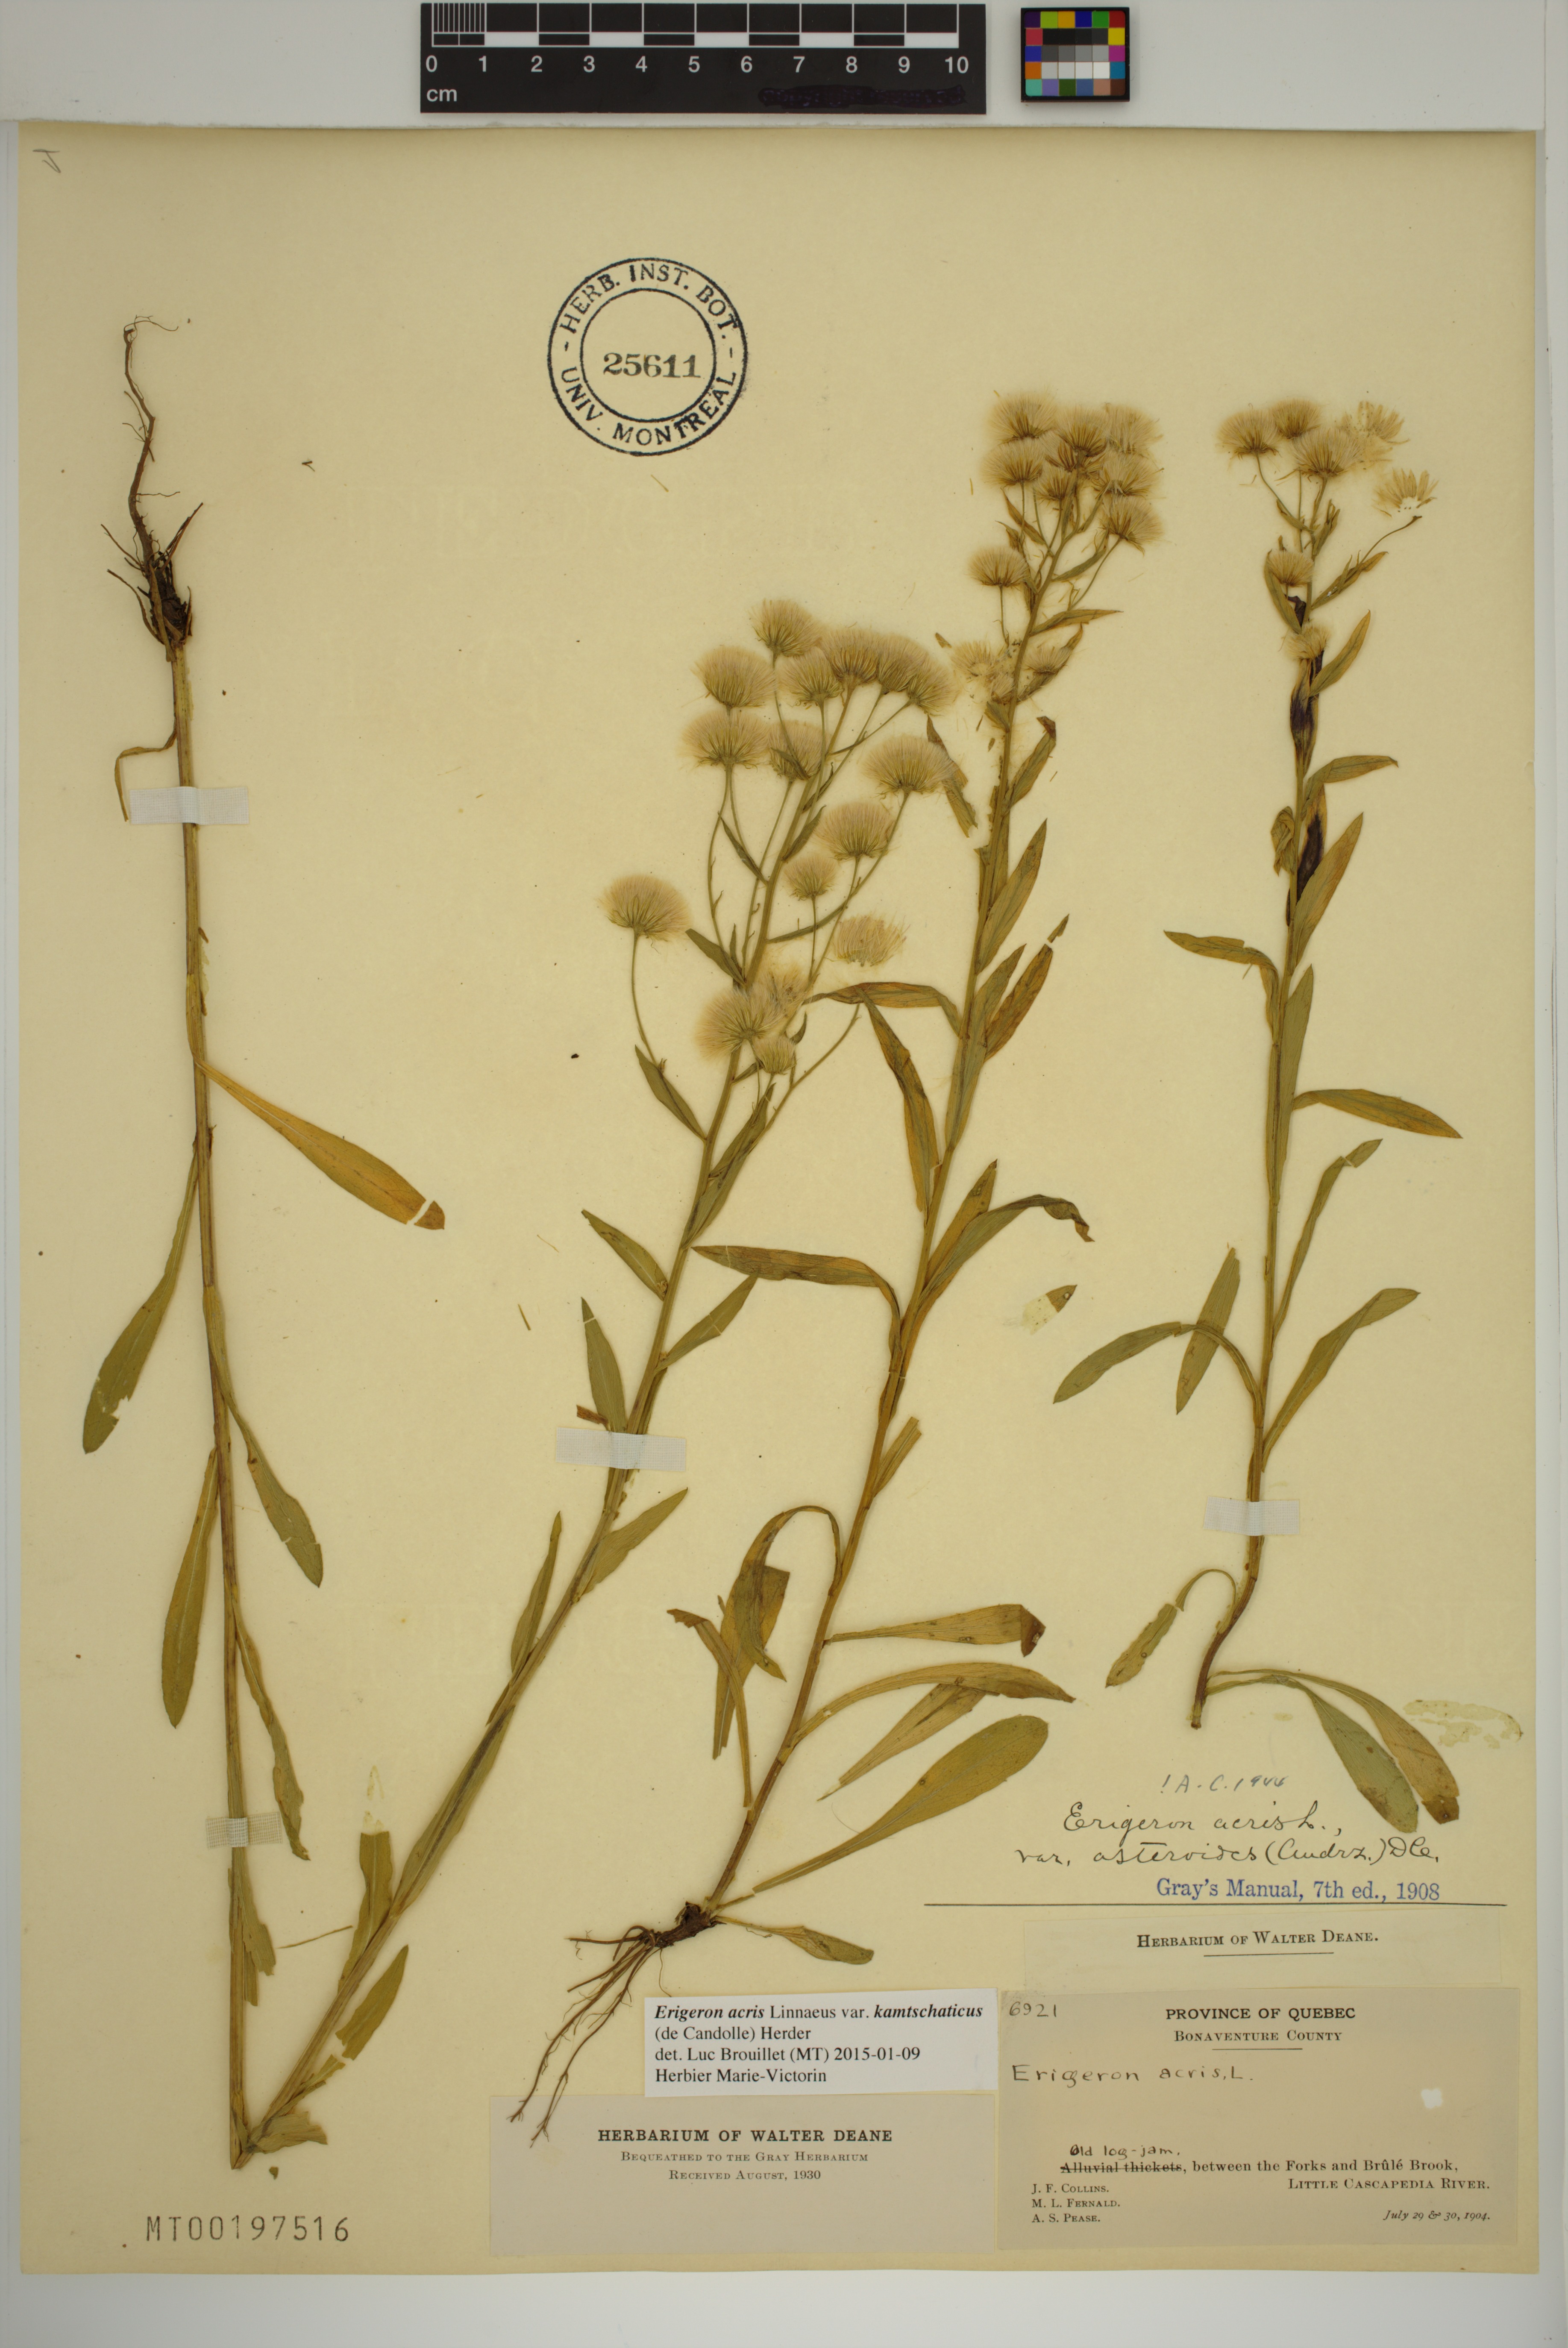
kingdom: Plantae
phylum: Tracheophyta
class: Magnoliopsida
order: Asterales
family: Asteraceae
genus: Erigeron
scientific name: Erigeron kamtschaticus
